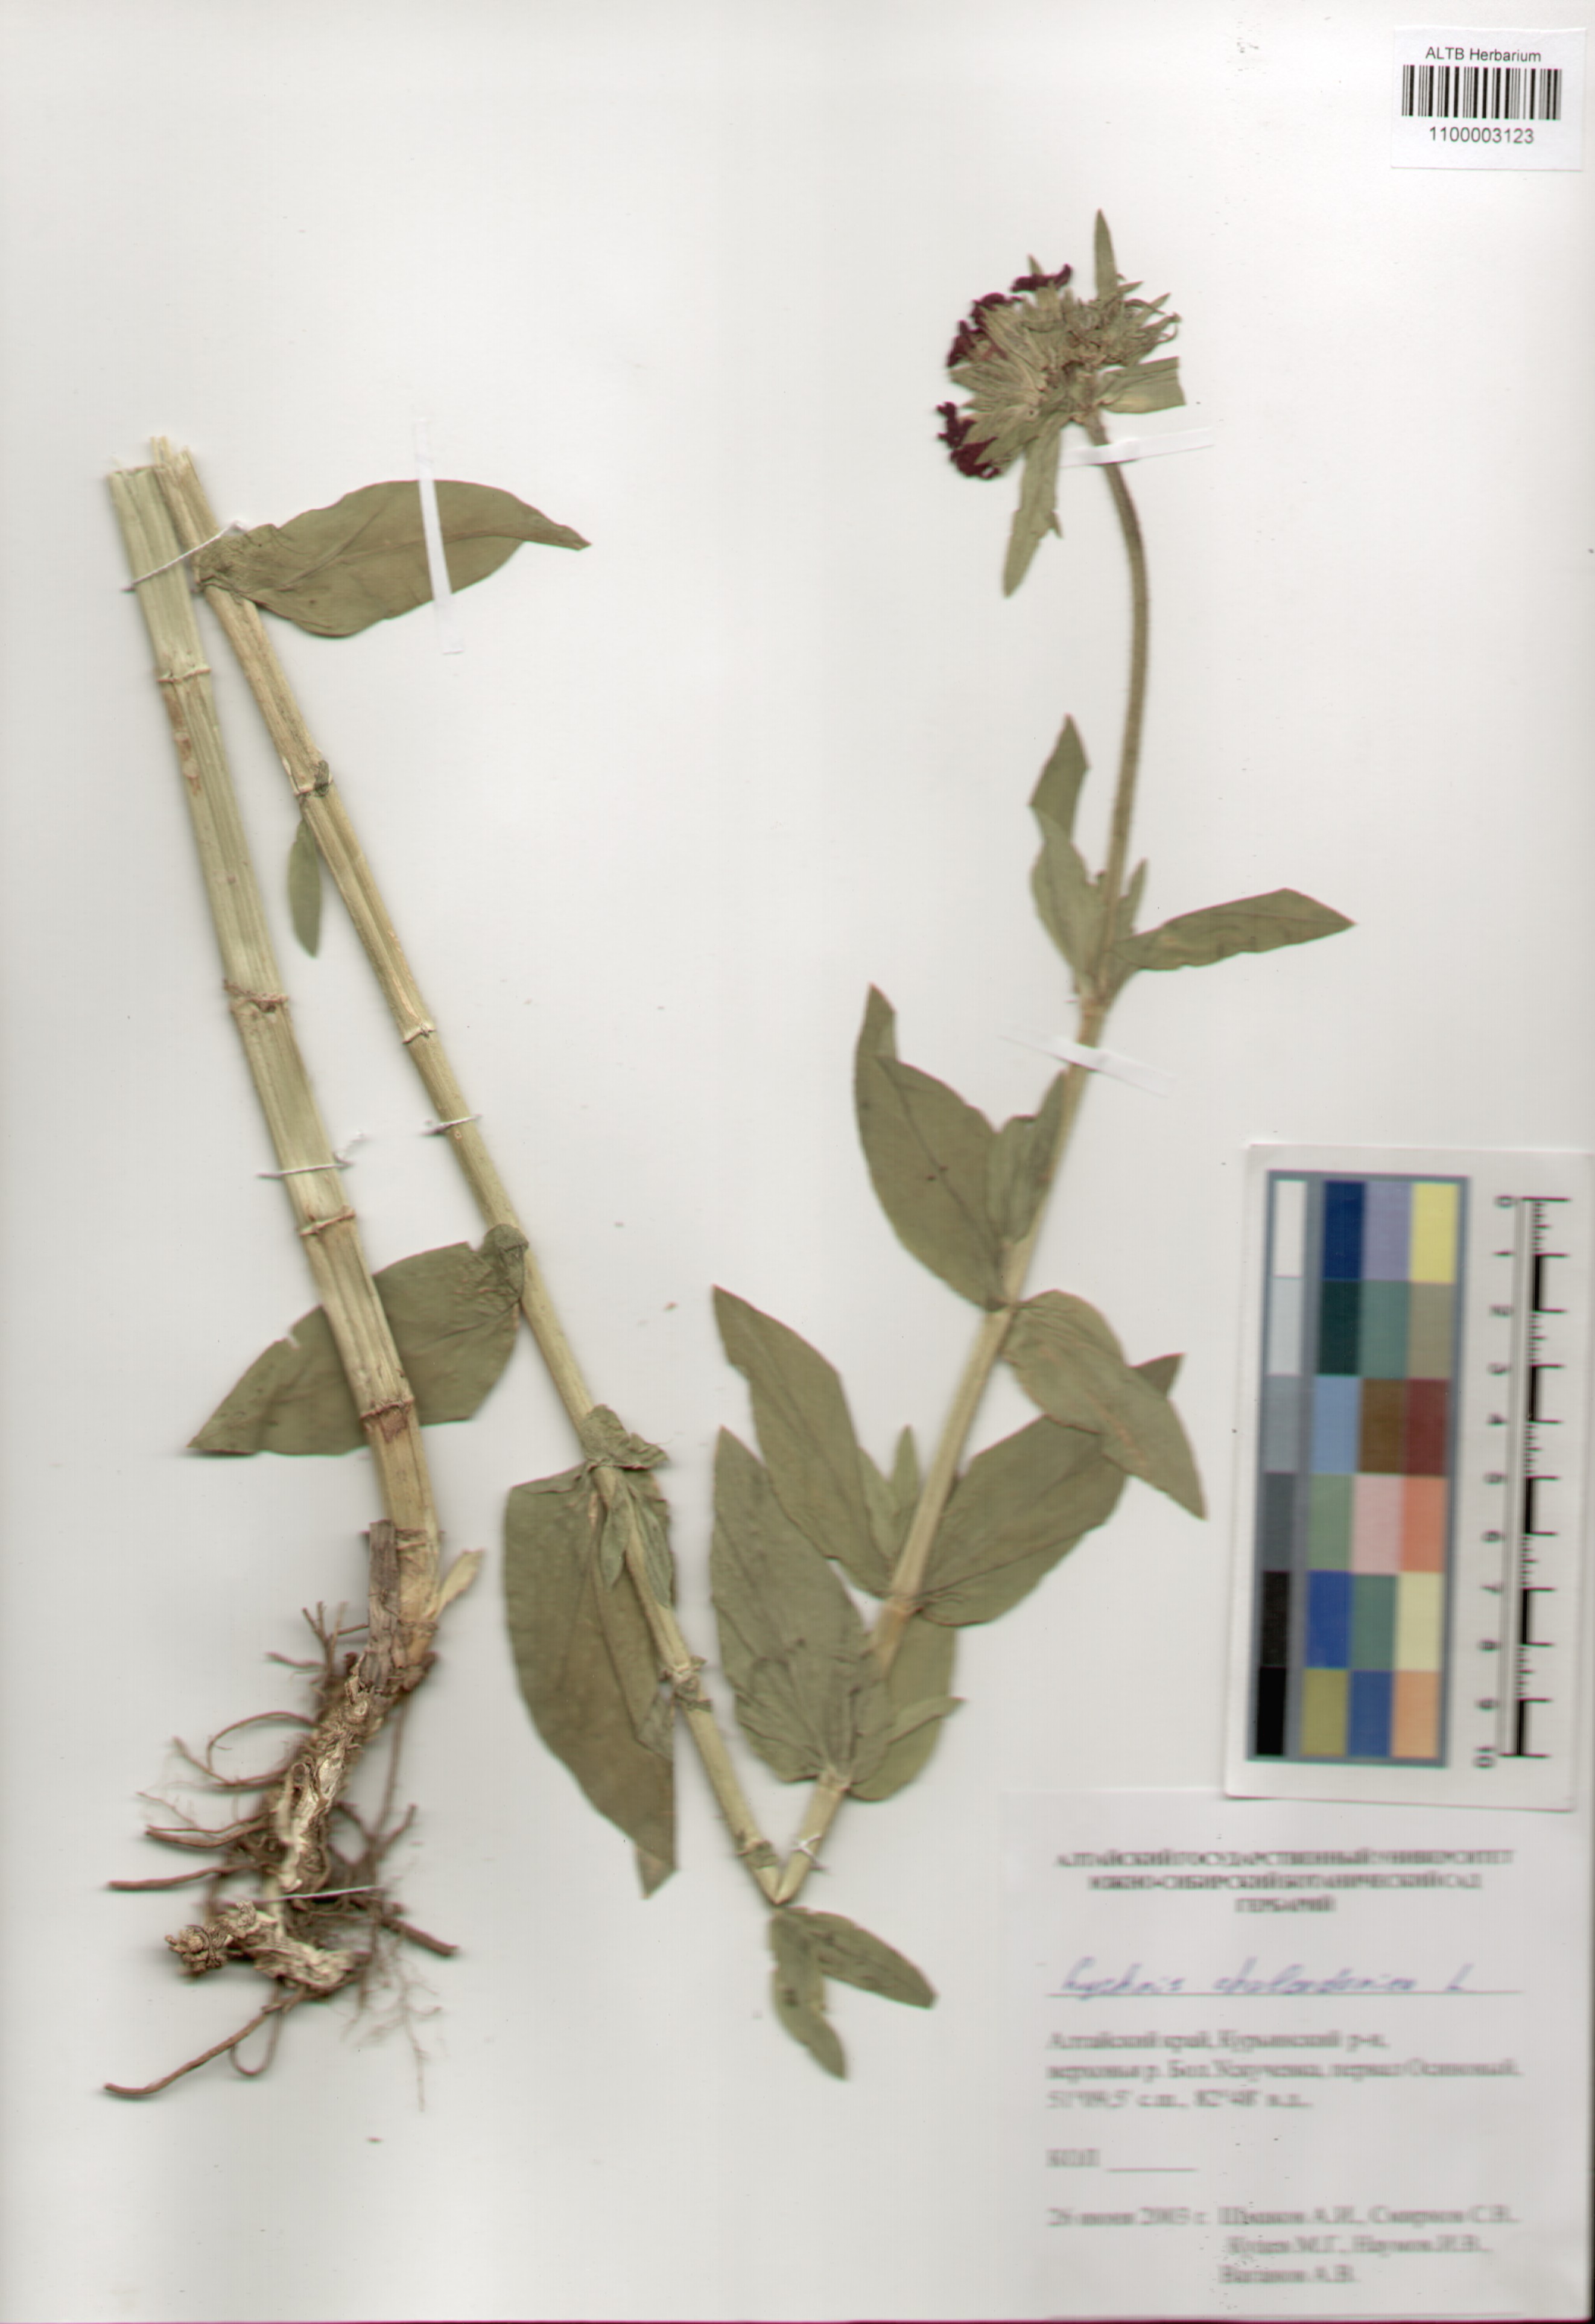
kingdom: Plantae
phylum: Tracheophyta
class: Magnoliopsida
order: Caryophyllales
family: Caryophyllaceae
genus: Silene
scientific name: Silene chalcedonica
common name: Maltese-cross
